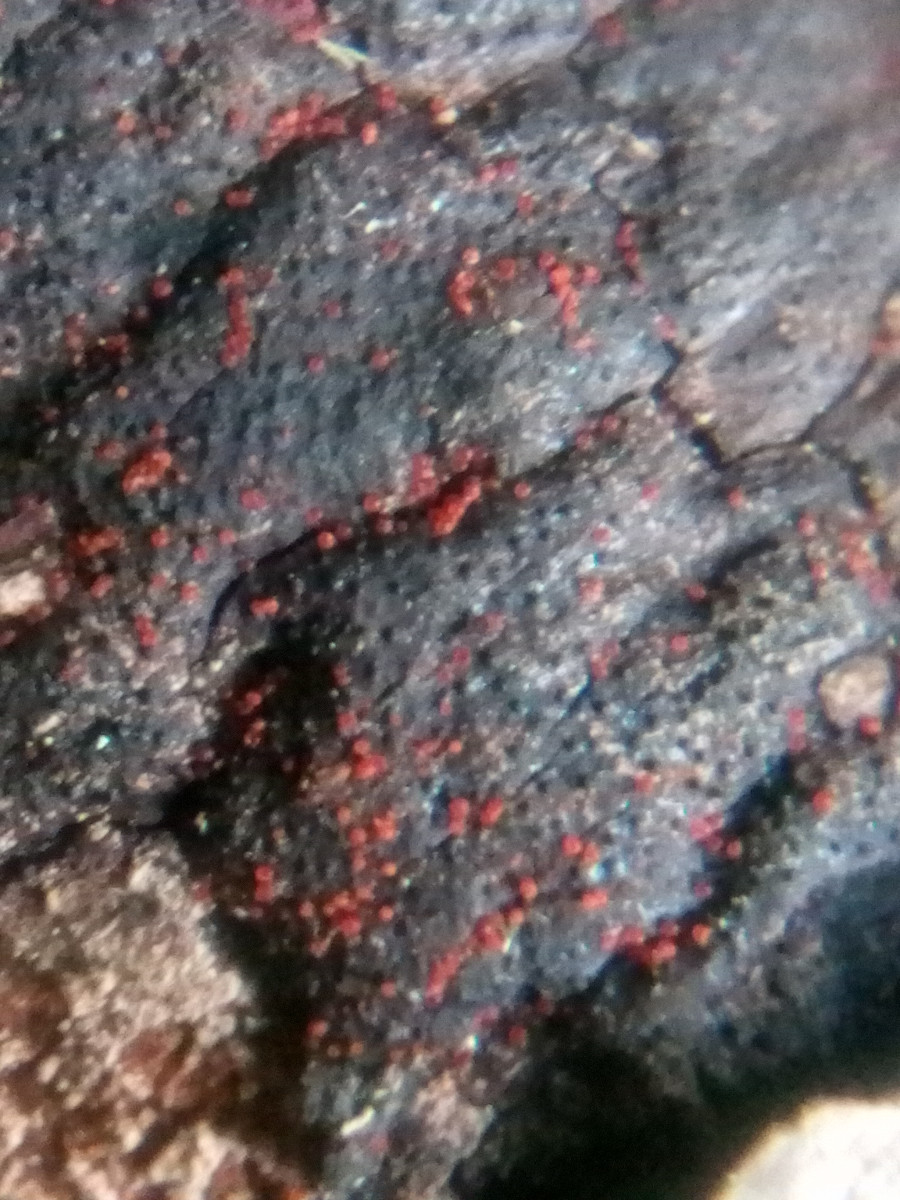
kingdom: Fungi
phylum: Ascomycota
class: Sordariomycetes
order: Hypocreales
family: Nectriaceae
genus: Dialonectria
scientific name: Dialonectria episphaeria
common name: kulskorpe-cinnobersvamp
